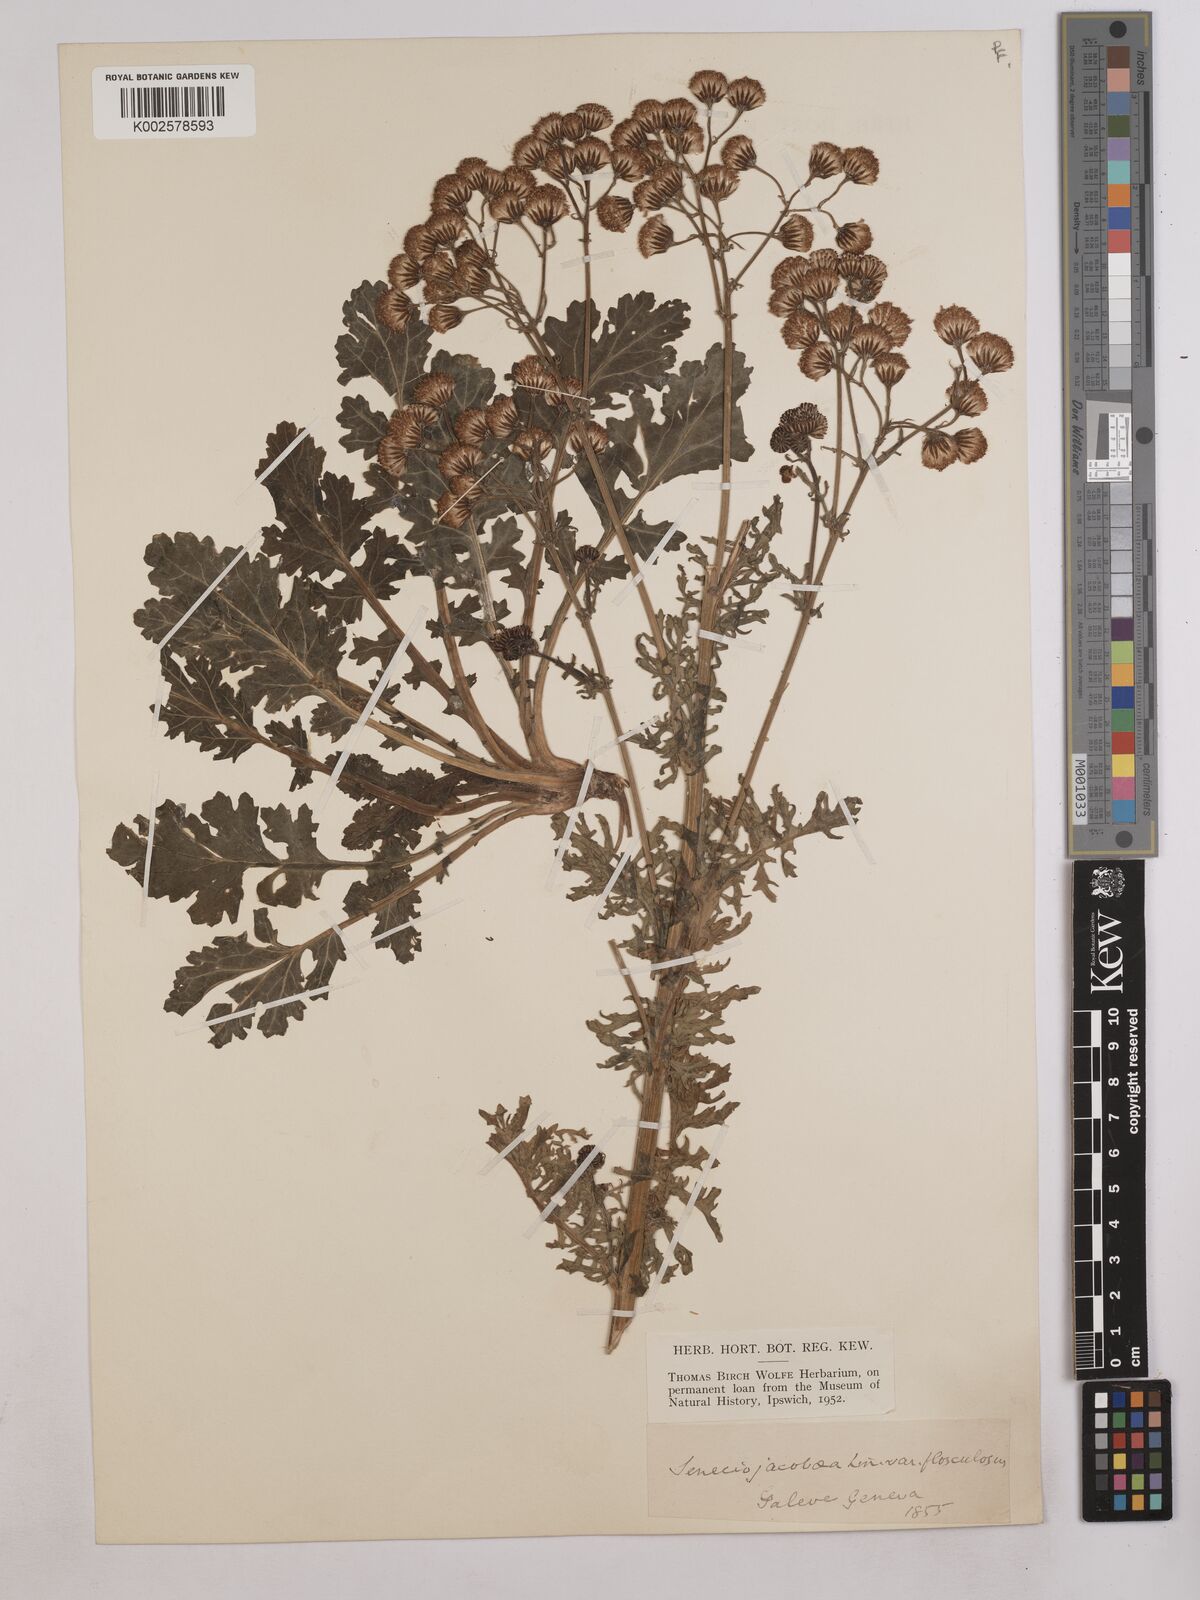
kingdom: Plantae
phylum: Tracheophyta
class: Magnoliopsida
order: Asterales
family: Asteraceae
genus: Jacobaea
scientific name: Jacobaea vulgaris
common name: Stinking willie
